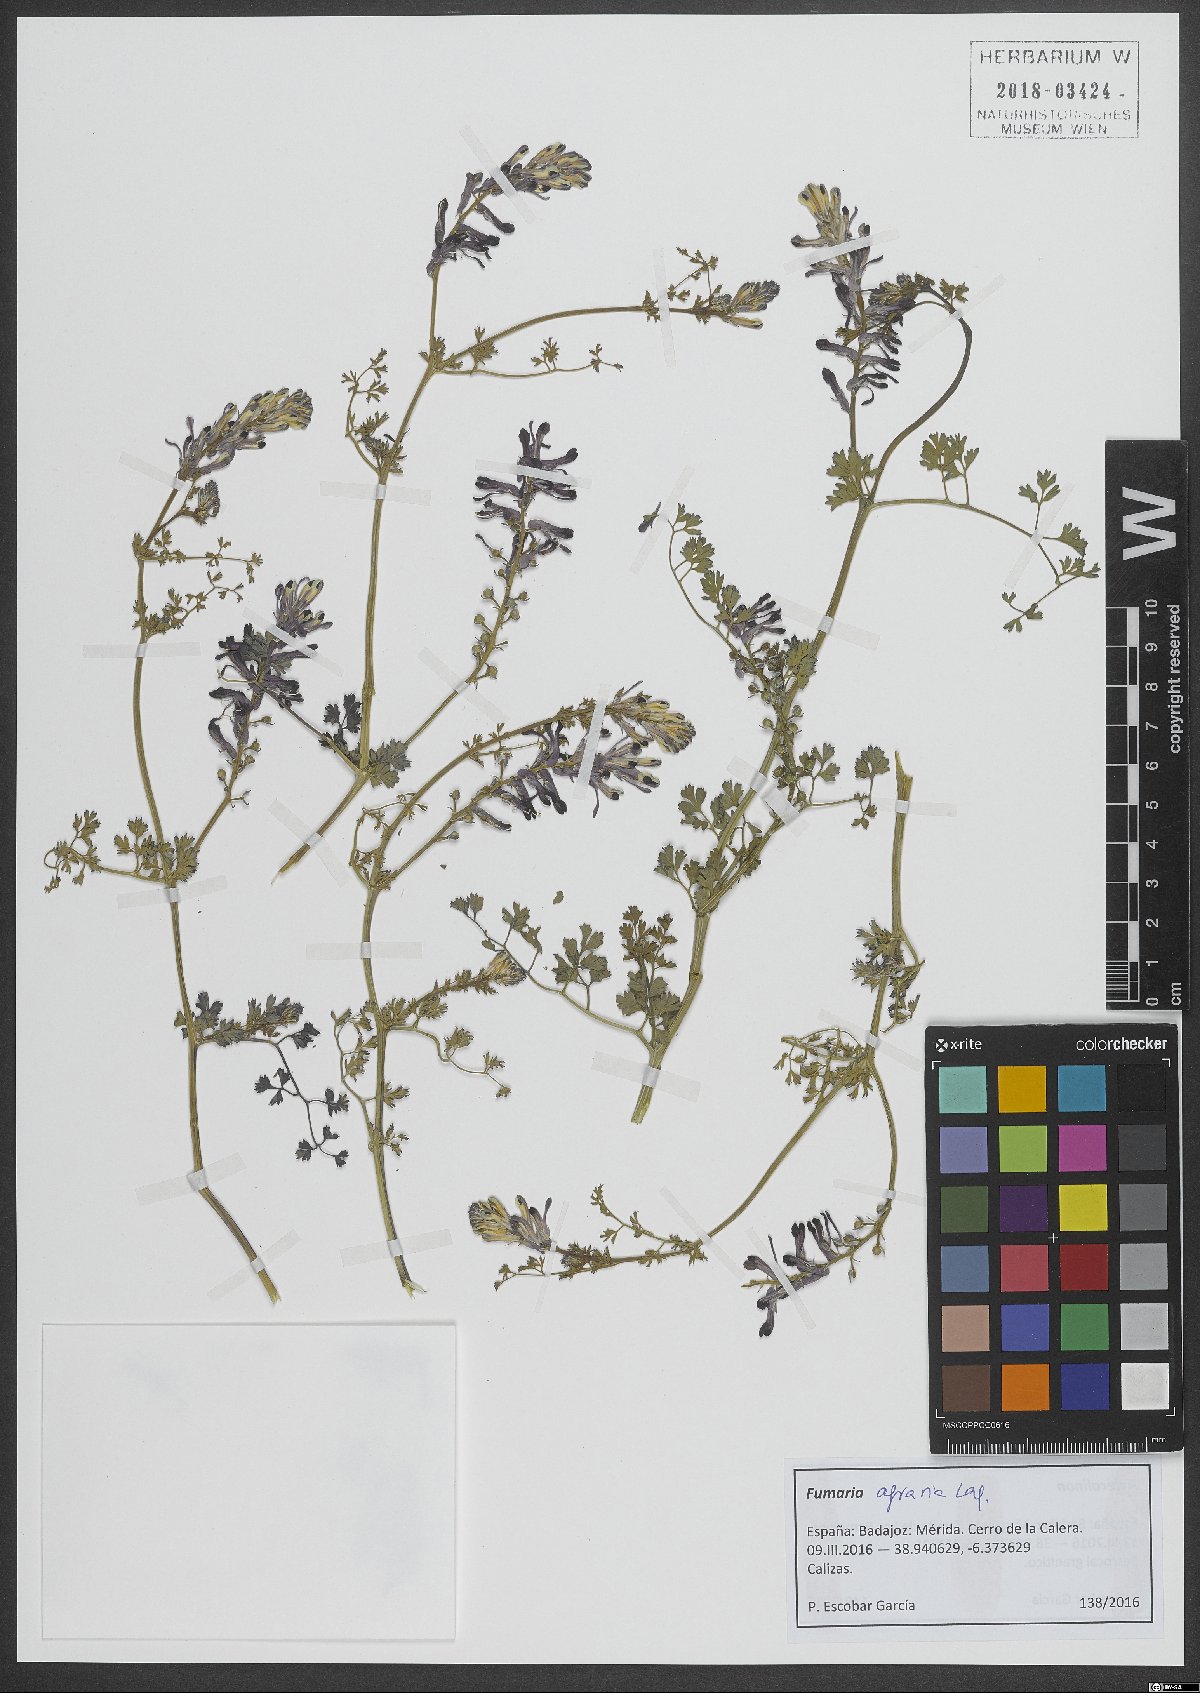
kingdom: Plantae
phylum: Tracheophyta
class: Magnoliopsida
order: Ranunculales
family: Papaveraceae
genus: Fumaria
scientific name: Fumaria agraria
